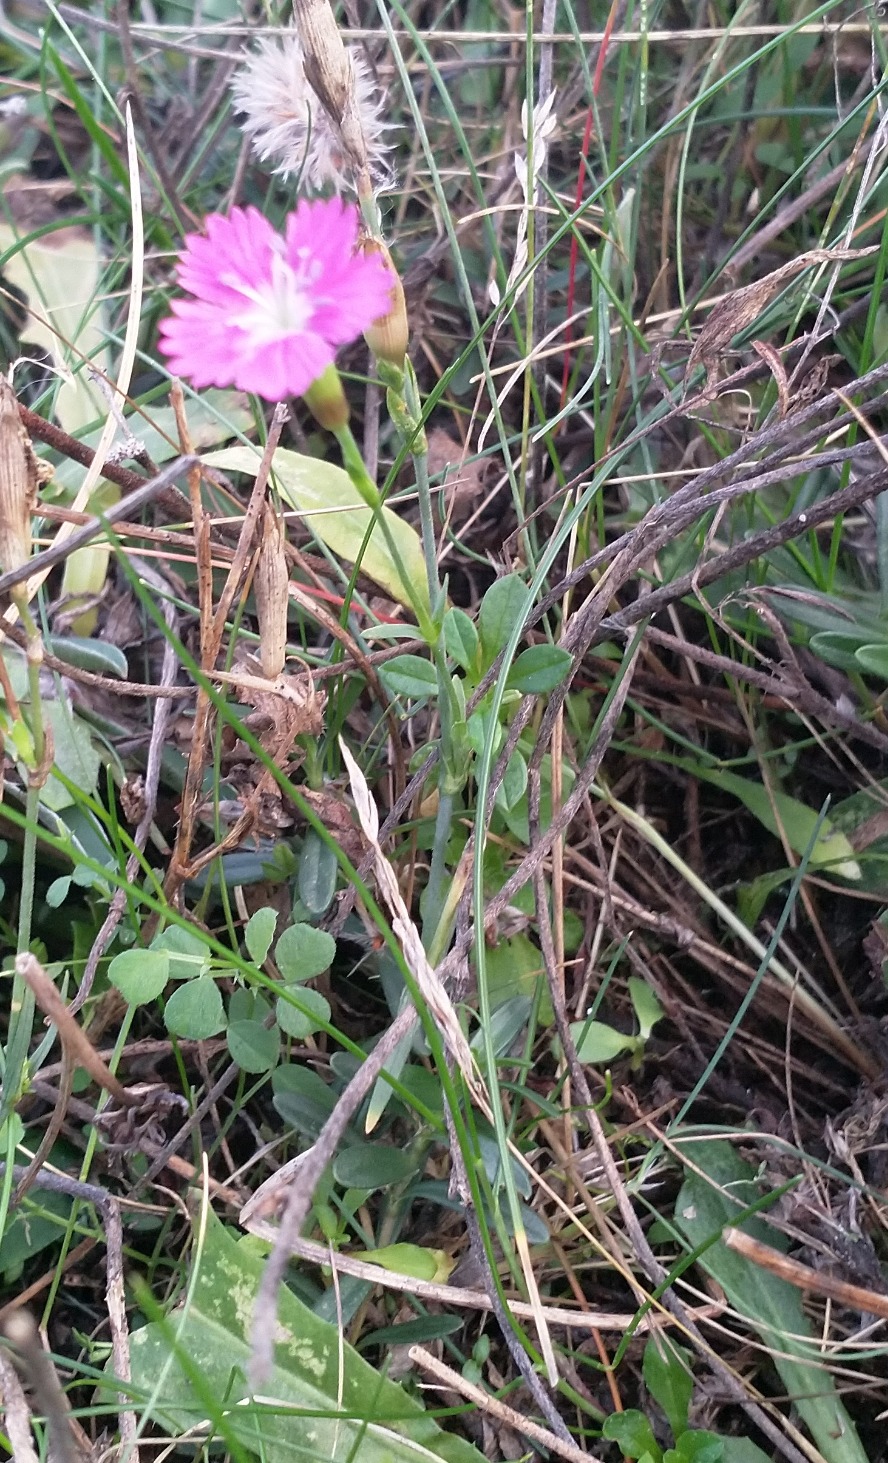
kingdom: Plantae
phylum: Tracheophyta
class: Magnoliopsida
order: Caryophyllales
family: Caryophyllaceae
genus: Dianthus
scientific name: Dianthus deltoides
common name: Bakke-nellike
